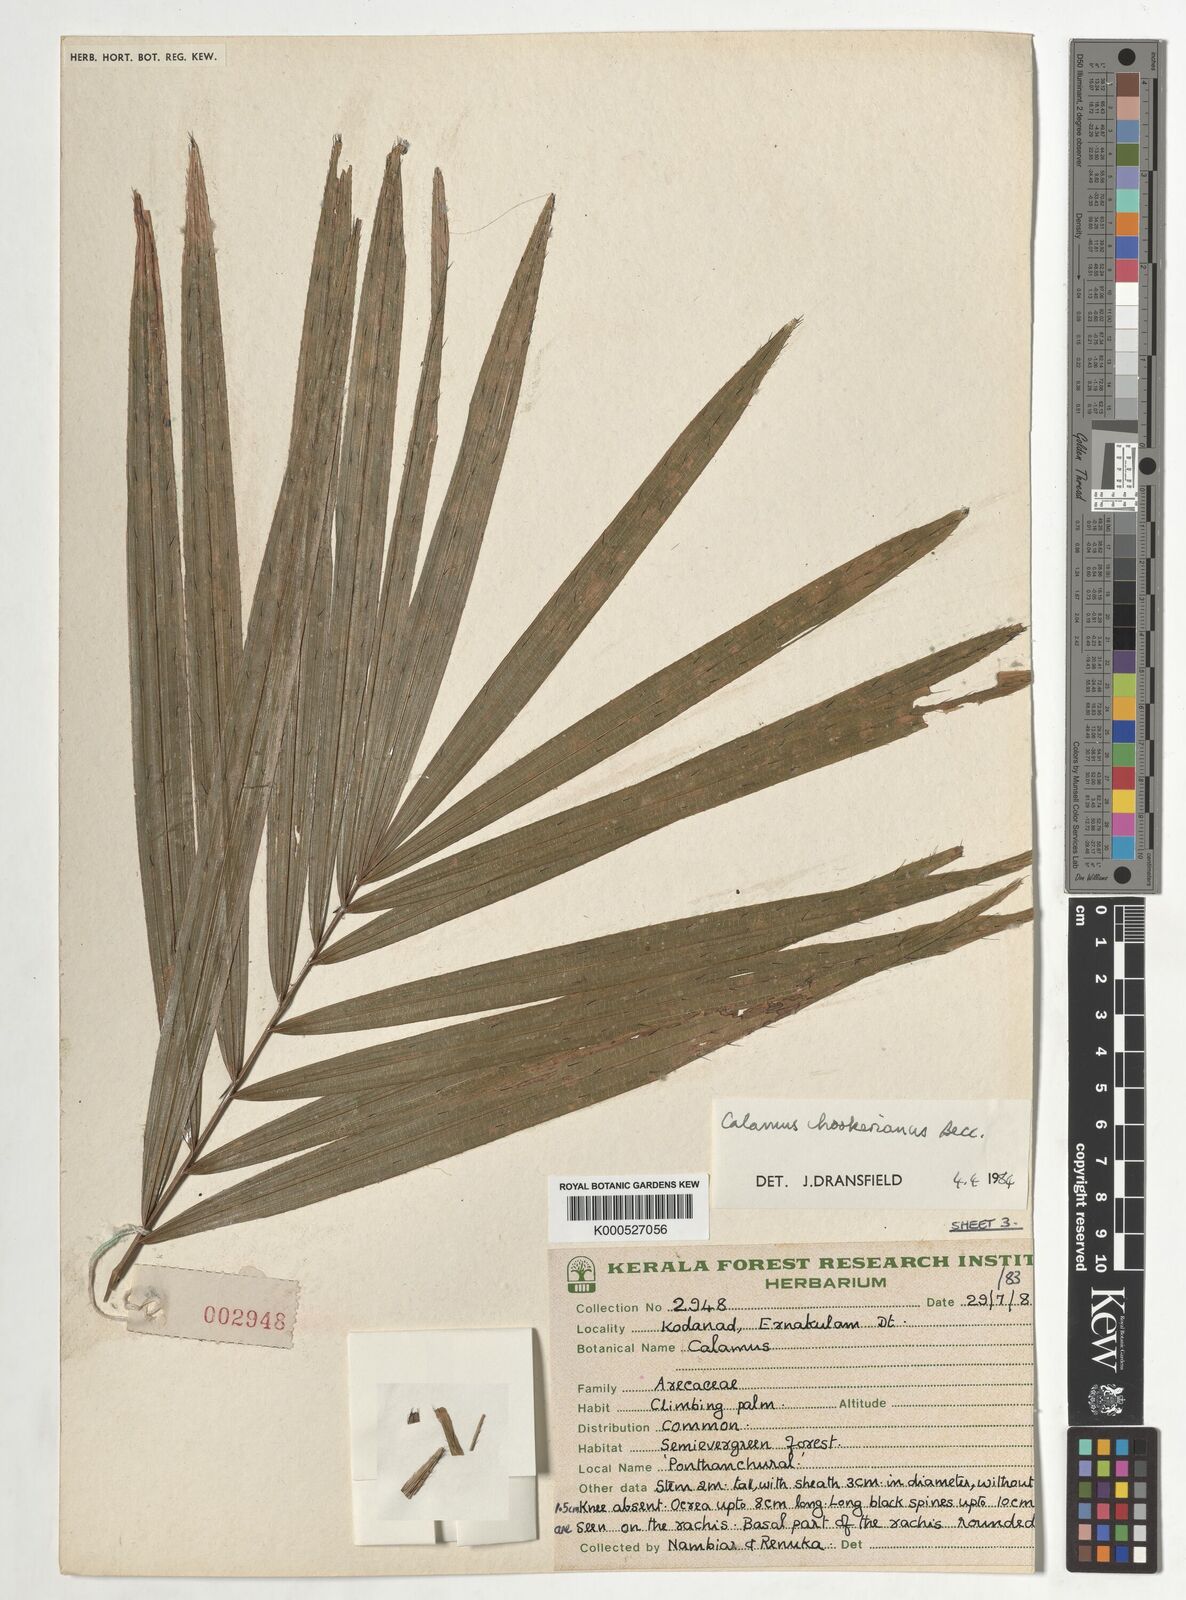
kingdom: Plantae
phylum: Tracheophyta
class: Liliopsida
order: Arecales
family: Arecaceae
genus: Calamus
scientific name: Calamus hookerianus
